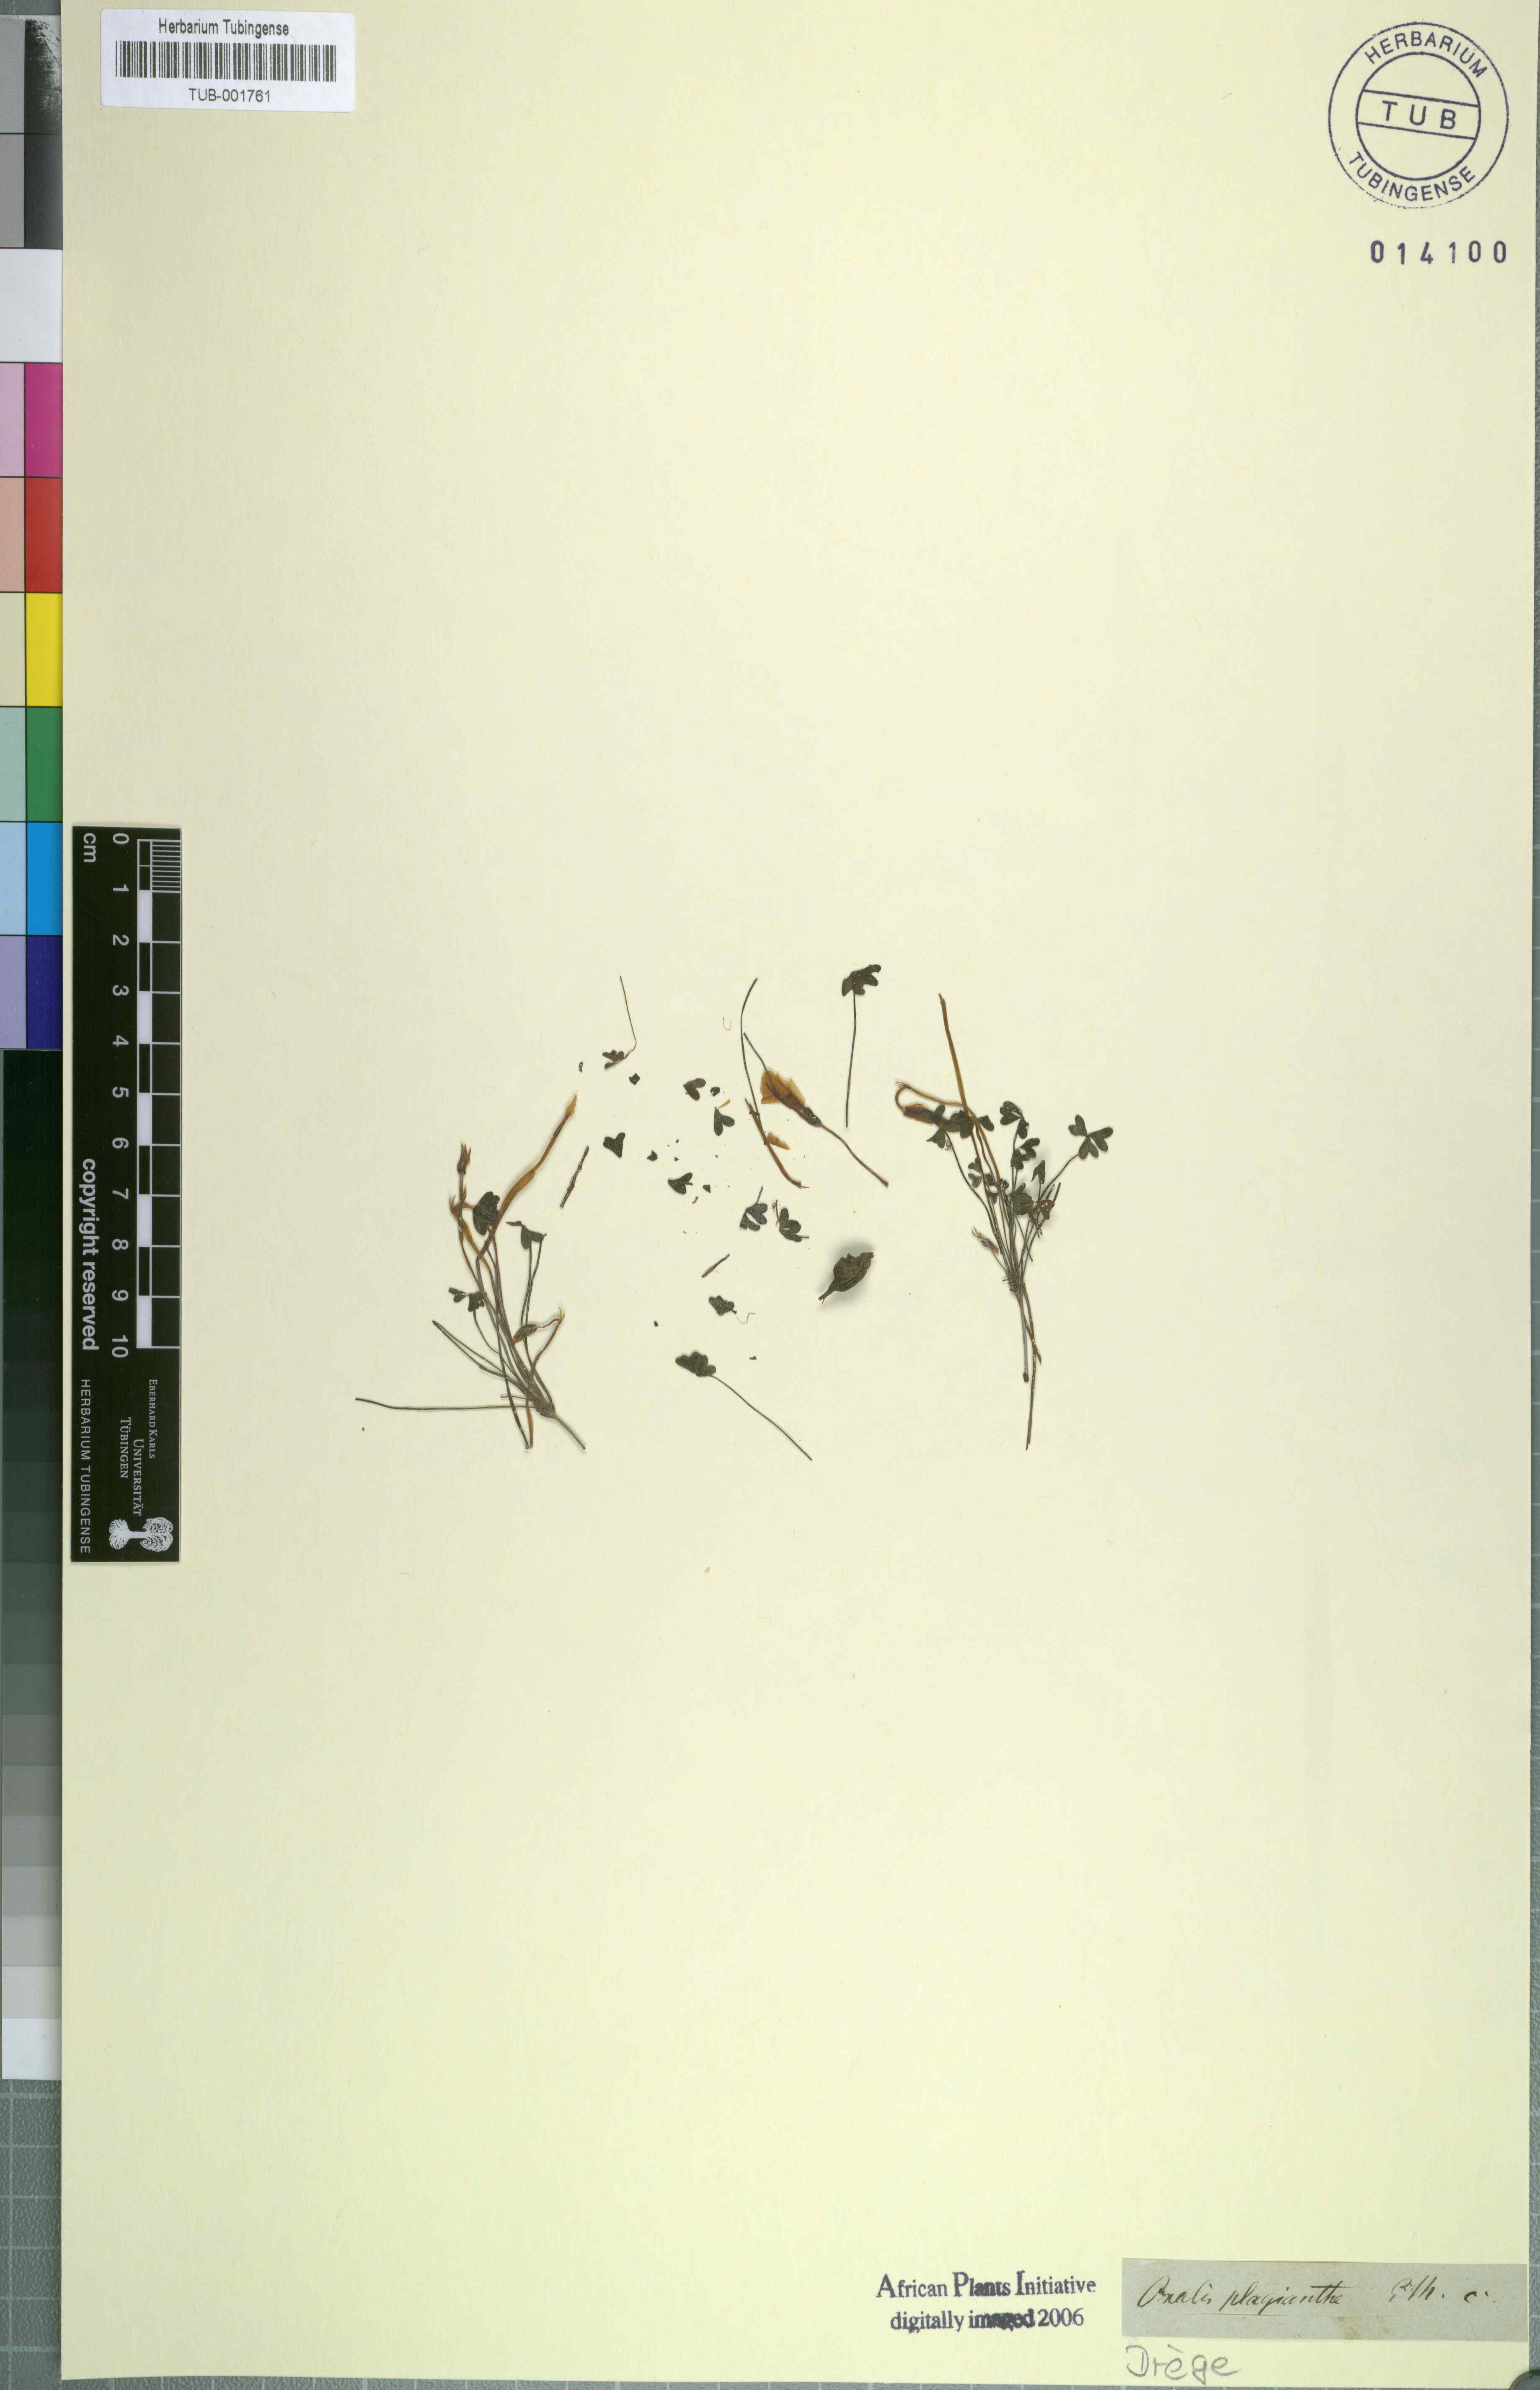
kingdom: Plantae
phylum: Tracheophyta
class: Magnoliopsida
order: Oxalidales
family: Oxalidaceae
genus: Oxalis
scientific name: Oxalis obtusa
